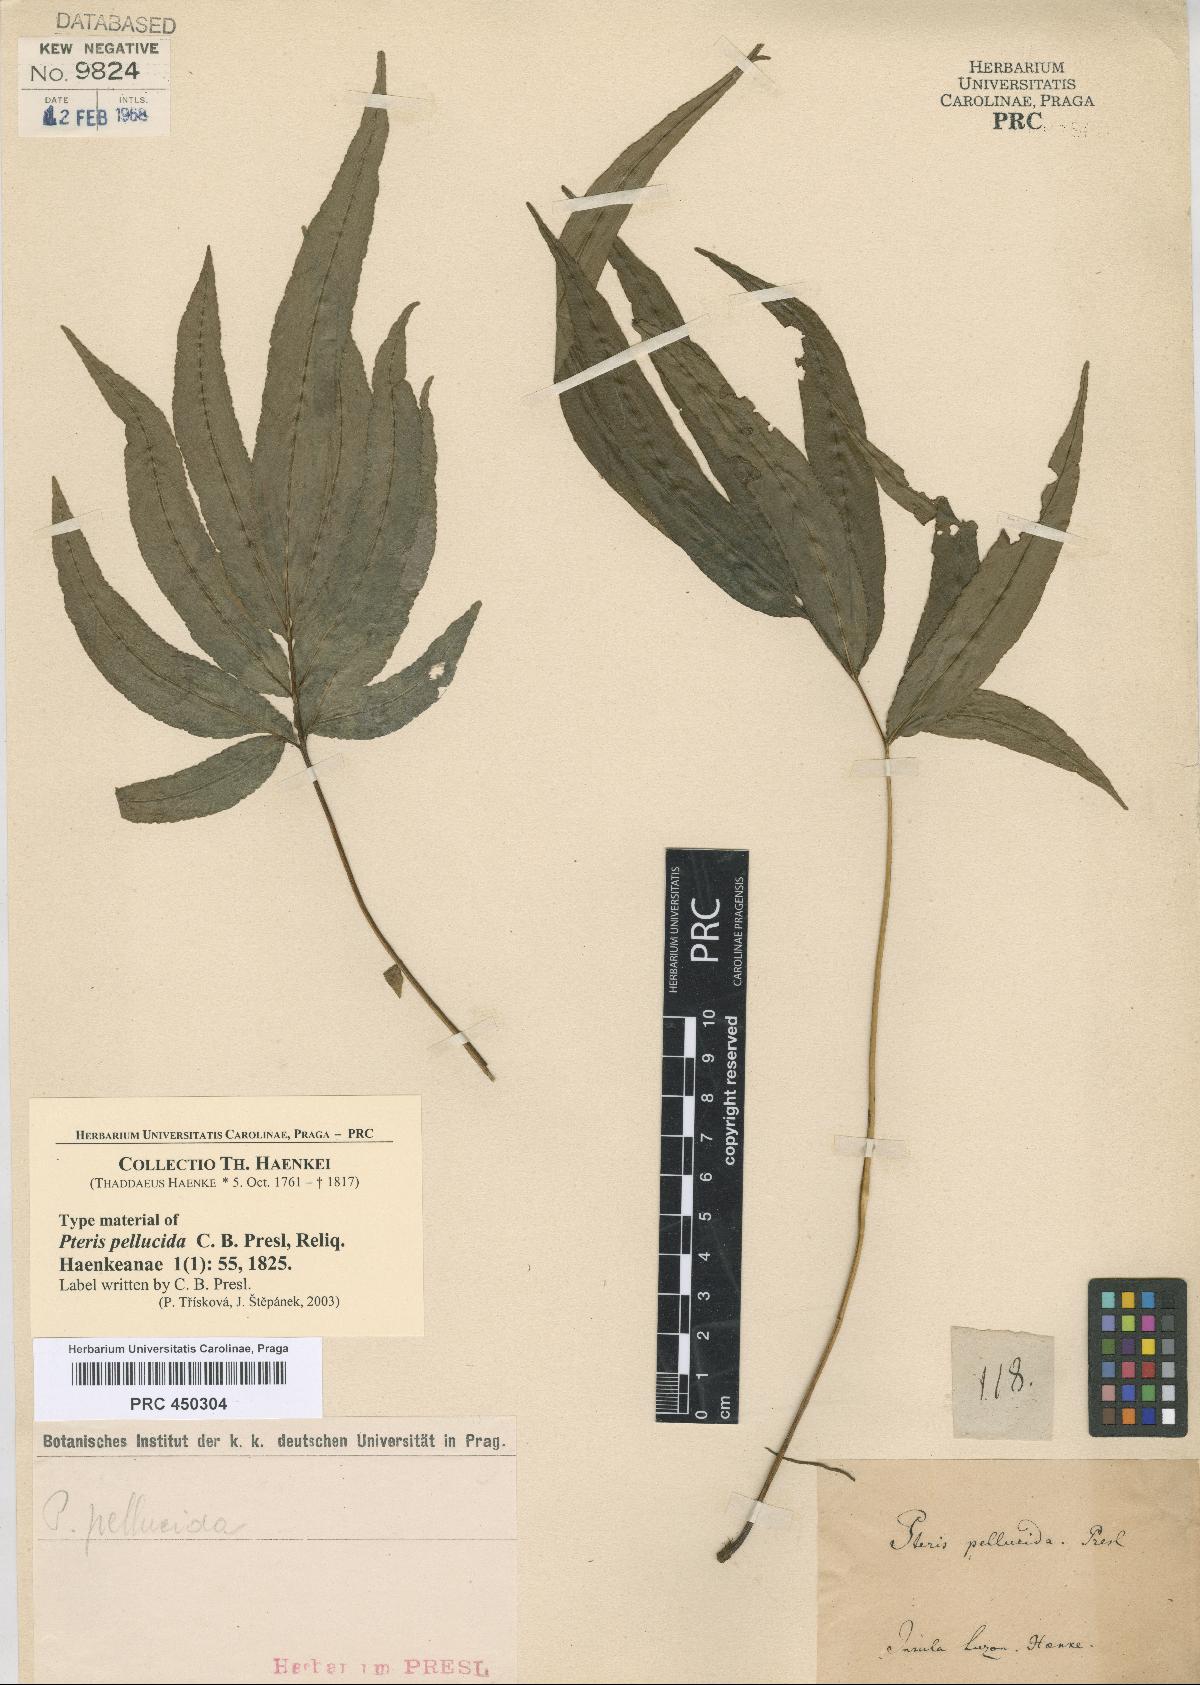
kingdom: Plantae
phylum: Tracheophyta
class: Polypodiopsida
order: Polypodiales
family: Pteridaceae
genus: Pteris
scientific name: Pteris pellucida
